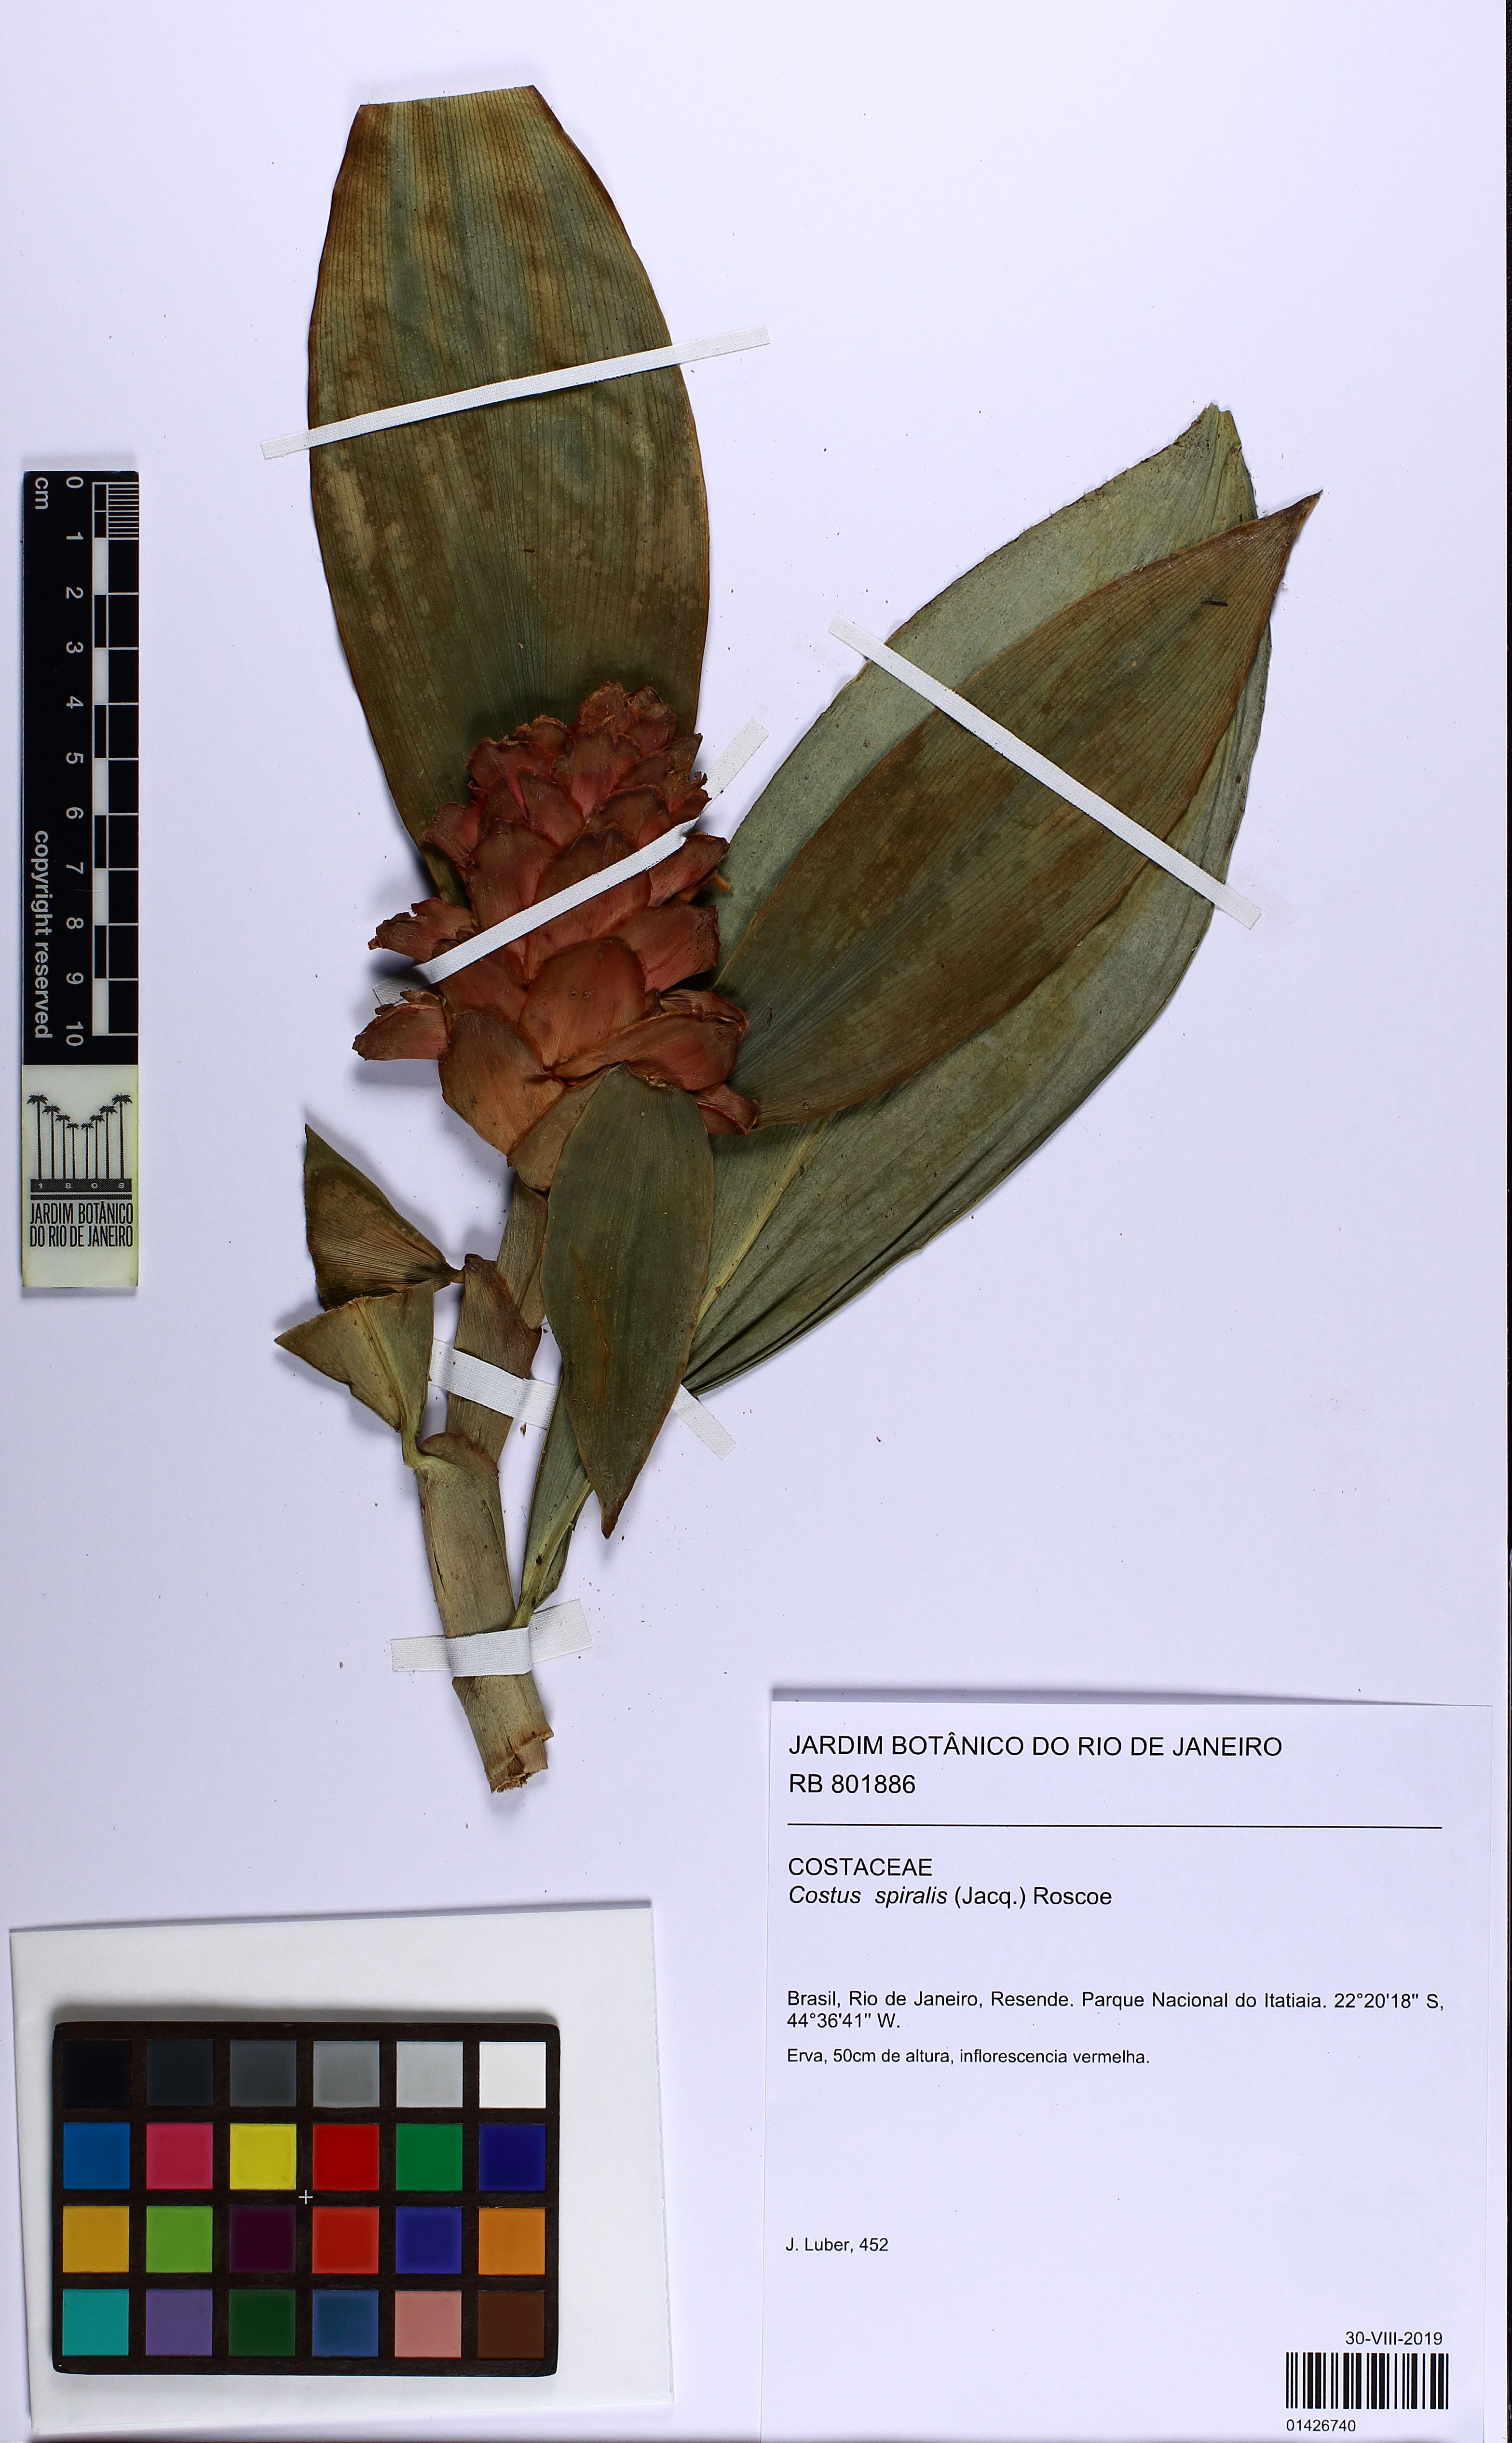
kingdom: Plantae
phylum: Tracheophyta
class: Liliopsida
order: Zingiberales
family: Costaceae
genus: Costus
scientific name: Costus spiralis
